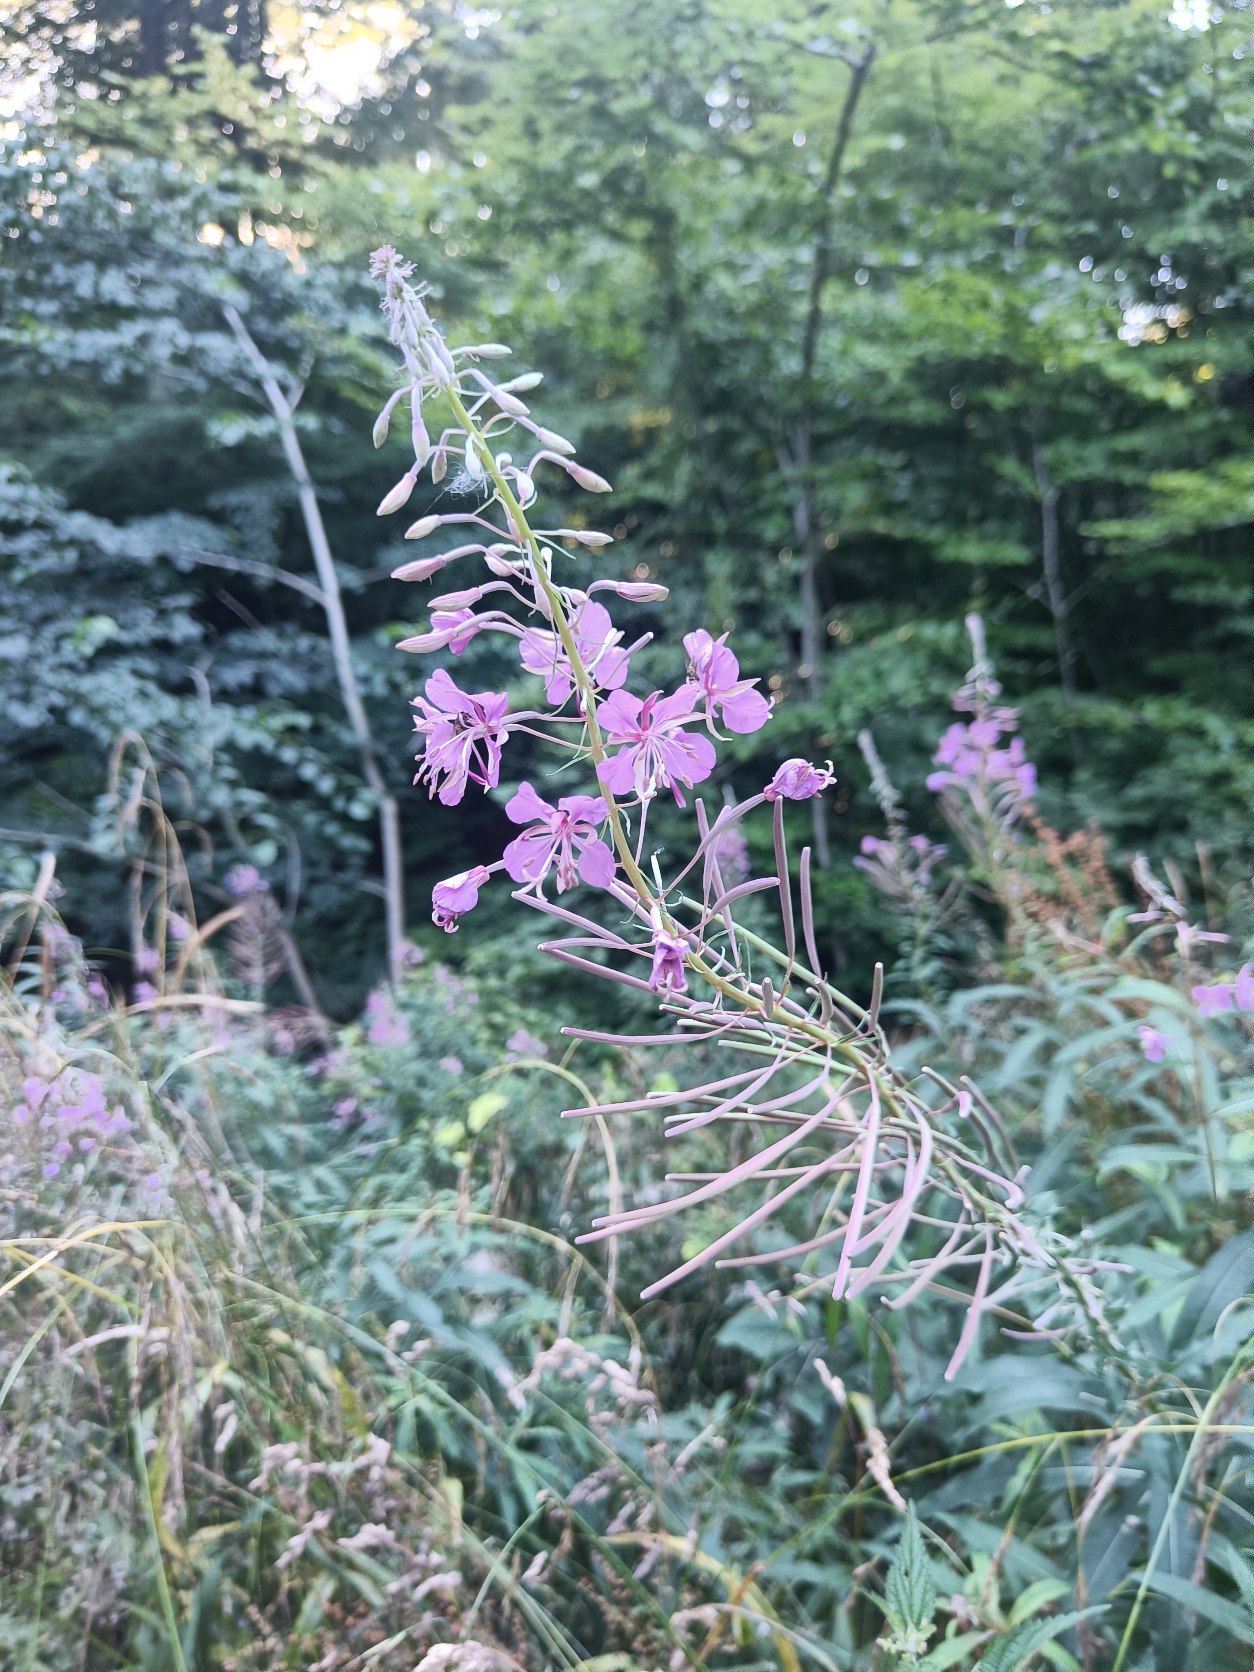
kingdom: Plantae
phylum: Tracheophyta
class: Magnoliopsida
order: Myrtales
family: Onagraceae
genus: Chamaenerion
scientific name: Chamaenerion angustifolium
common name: Gederams
